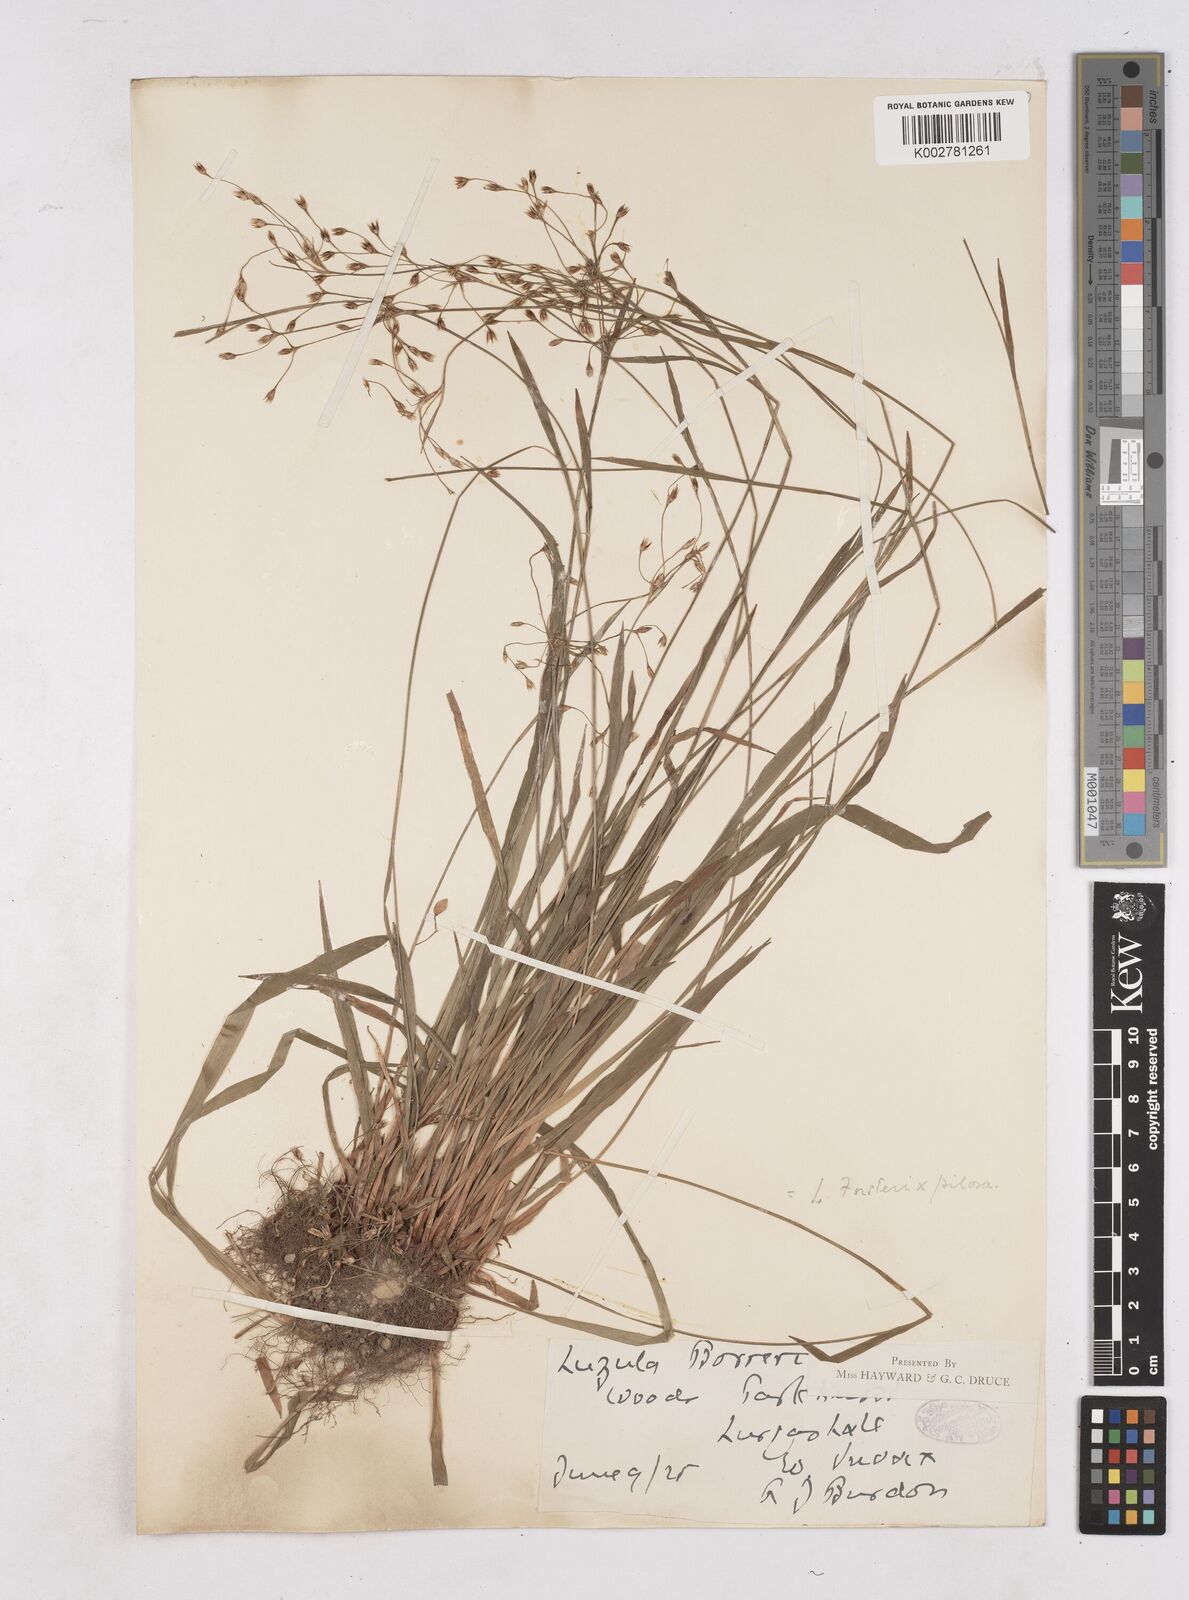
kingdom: Plantae
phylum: Tracheophyta
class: Liliopsida
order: Poales
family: Juncaceae
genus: Luzula
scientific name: Luzula forsteri
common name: Southern wood-rush
